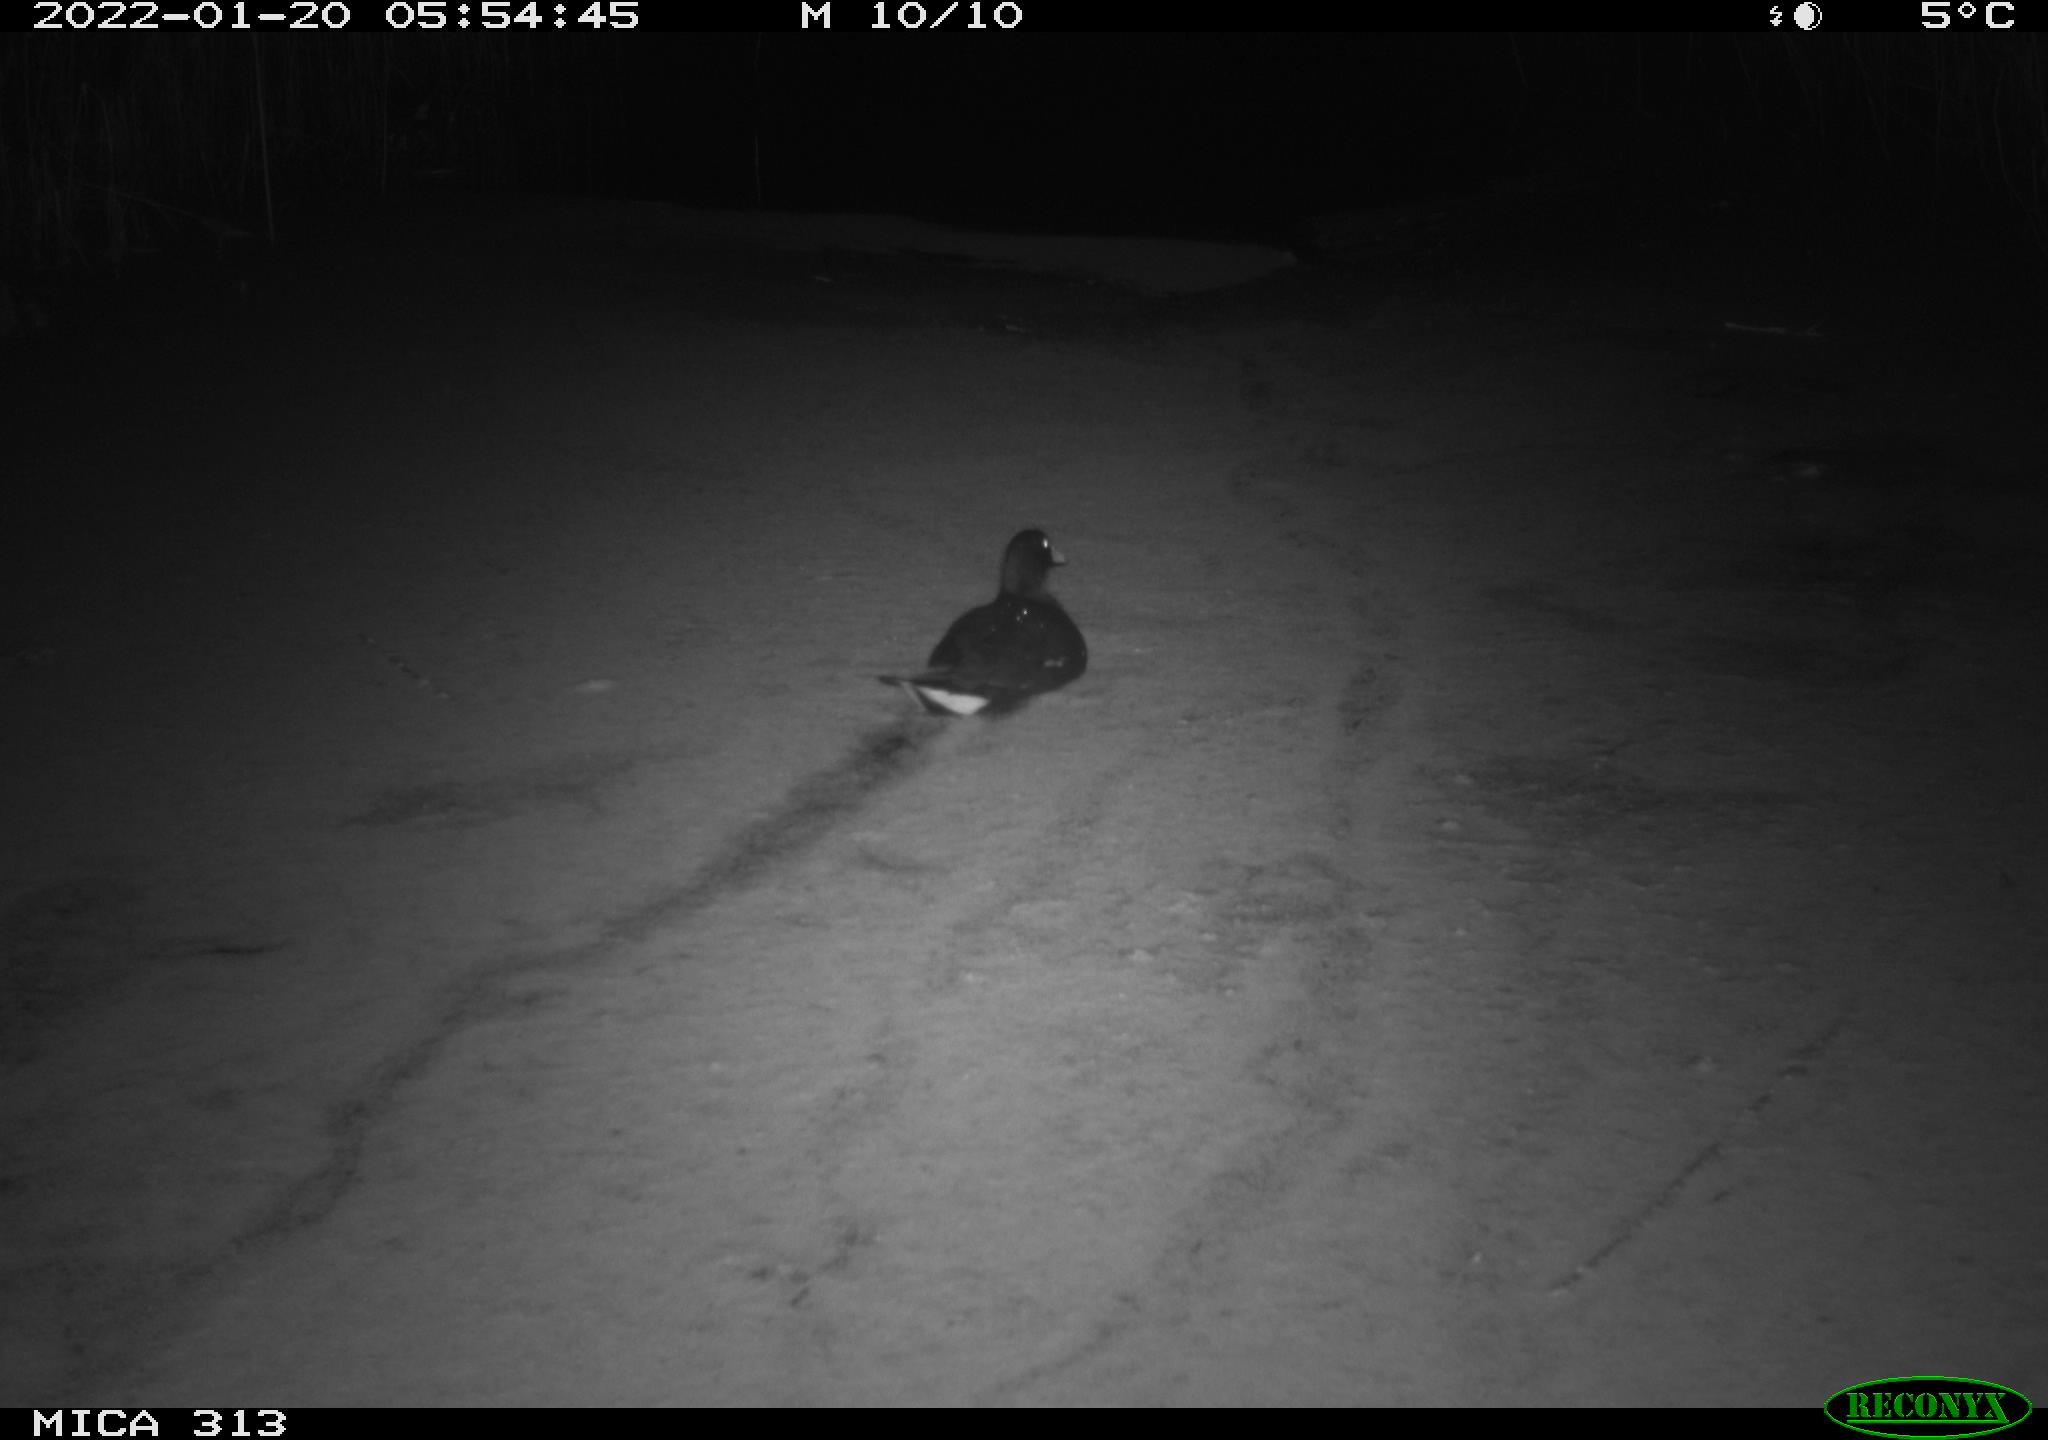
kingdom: Animalia
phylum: Chordata
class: Aves
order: Gruiformes
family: Rallidae
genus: Gallinula
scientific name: Gallinula chloropus
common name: Common moorhen
